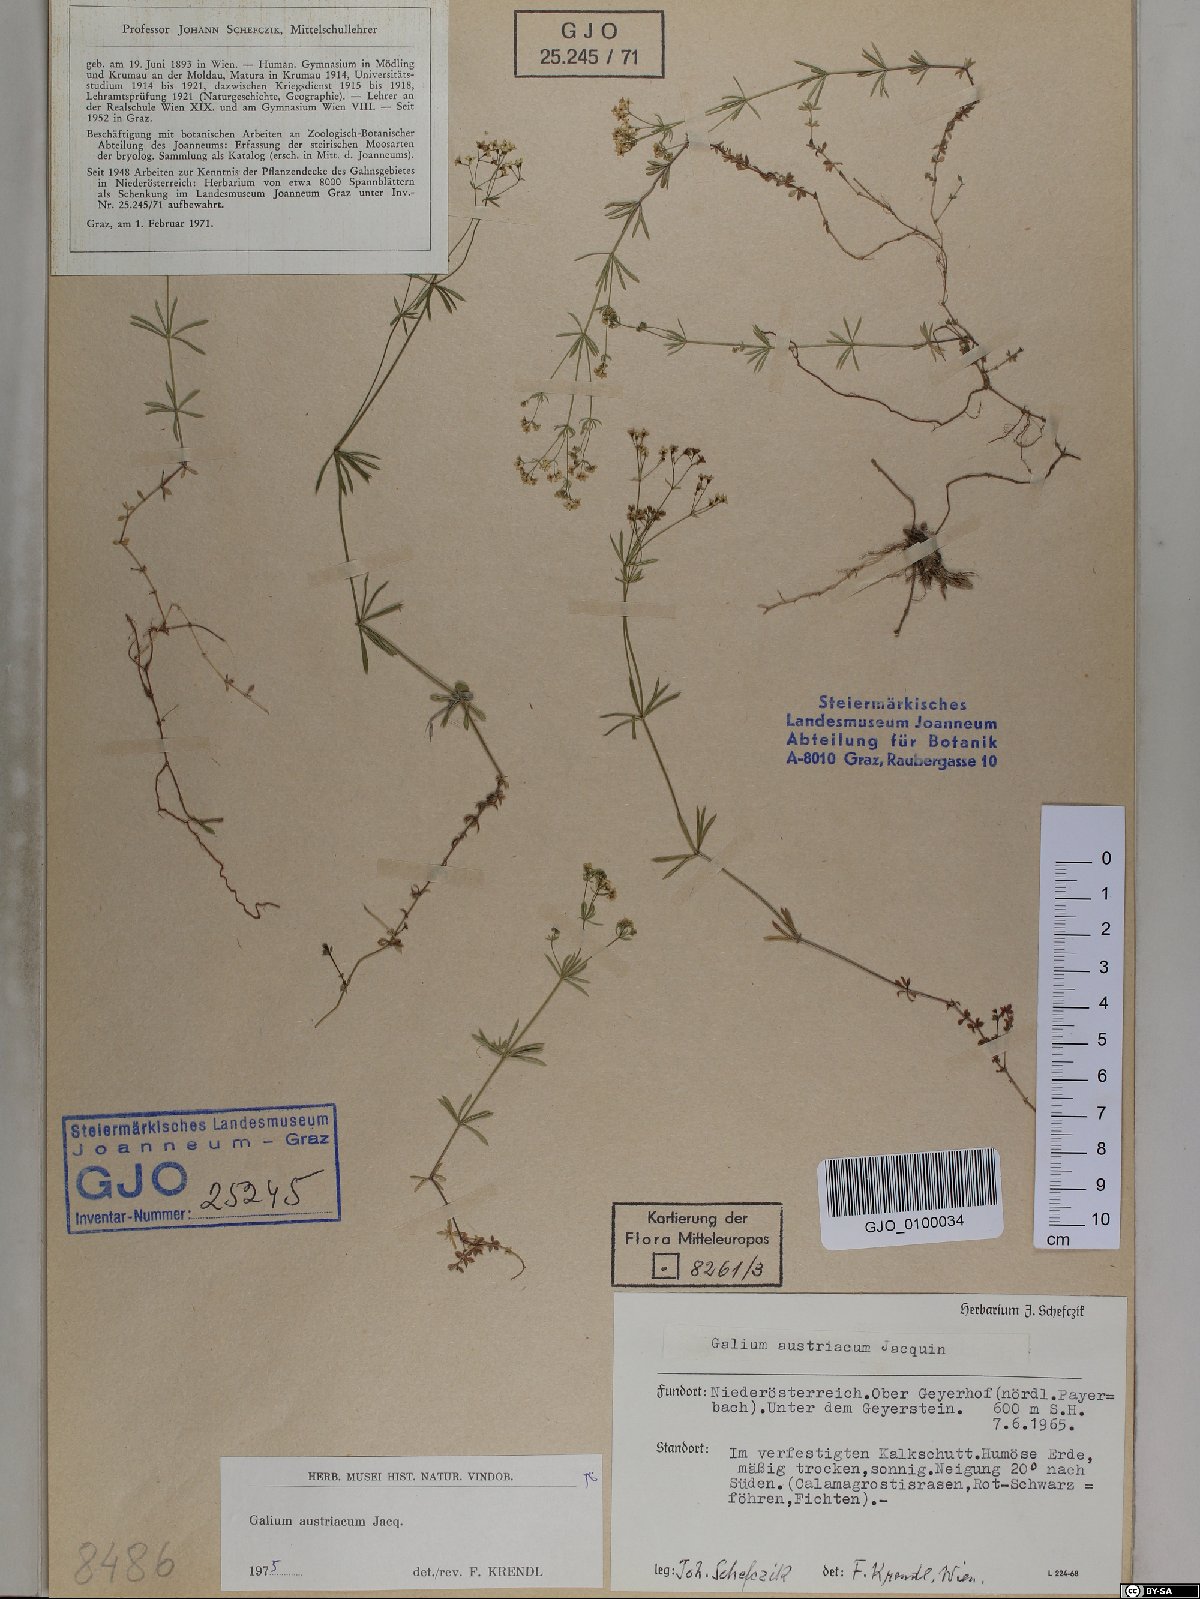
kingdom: Plantae
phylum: Tracheophyta
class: Magnoliopsida
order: Gentianales
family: Rubiaceae
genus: Galium
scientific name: Galium austriacum
